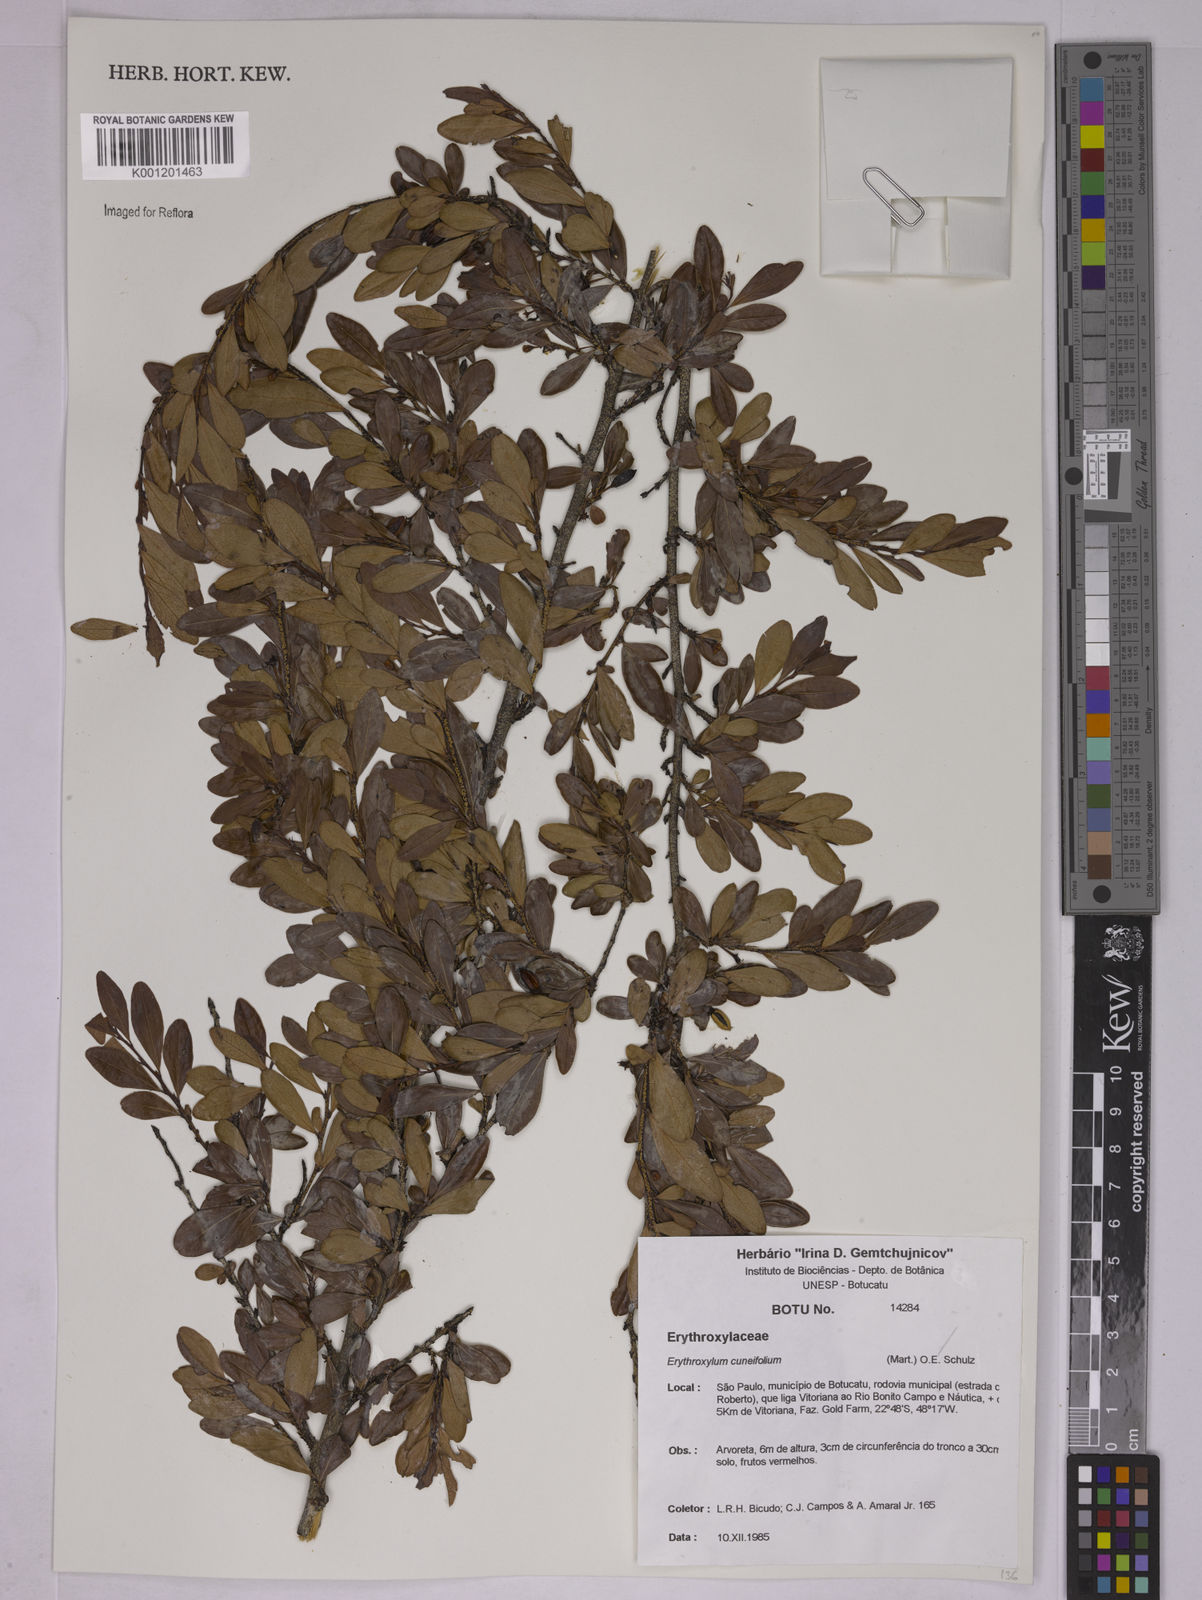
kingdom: Plantae
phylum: Tracheophyta
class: Magnoliopsida
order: Malpighiales
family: Erythroxylaceae
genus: Erythroxylum
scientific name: Erythroxylum cuneifolium
